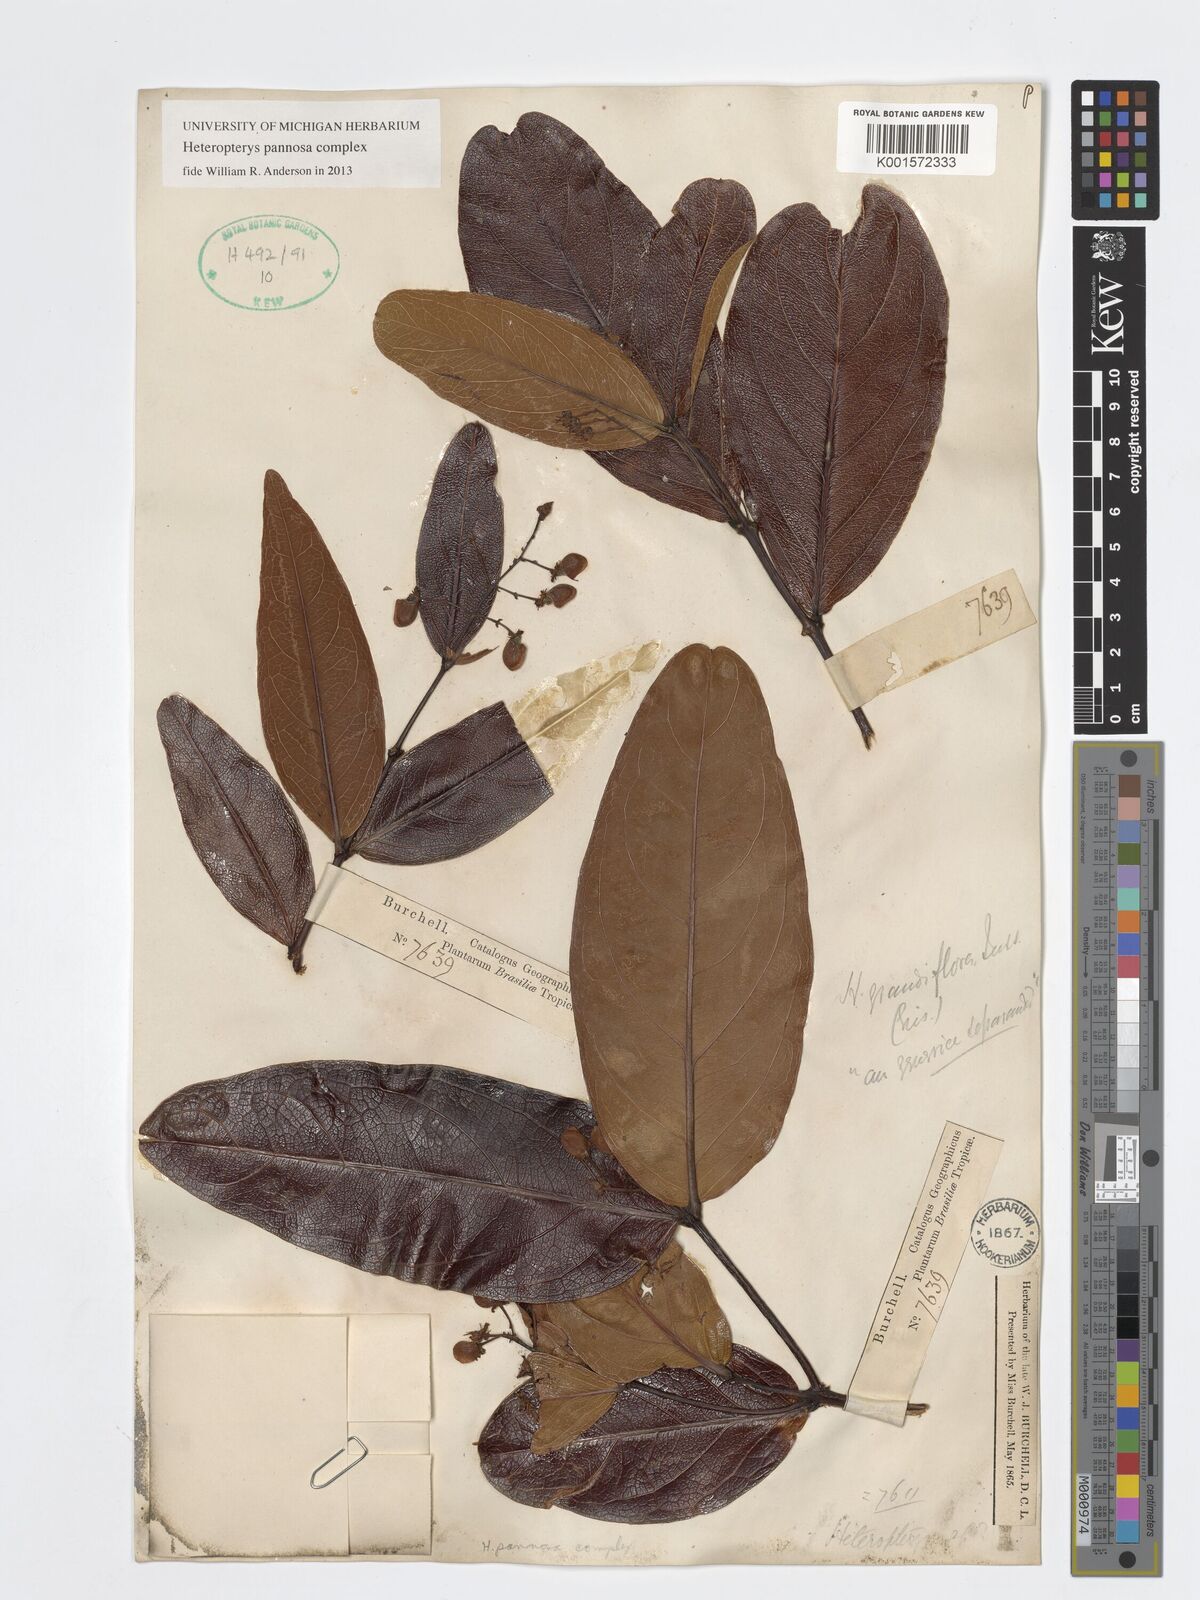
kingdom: Plantae
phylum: Tracheophyta
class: Magnoliopsida
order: Malpighiales
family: Malpighiaceae
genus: Heteropterys
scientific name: Heteropterys pannosa
